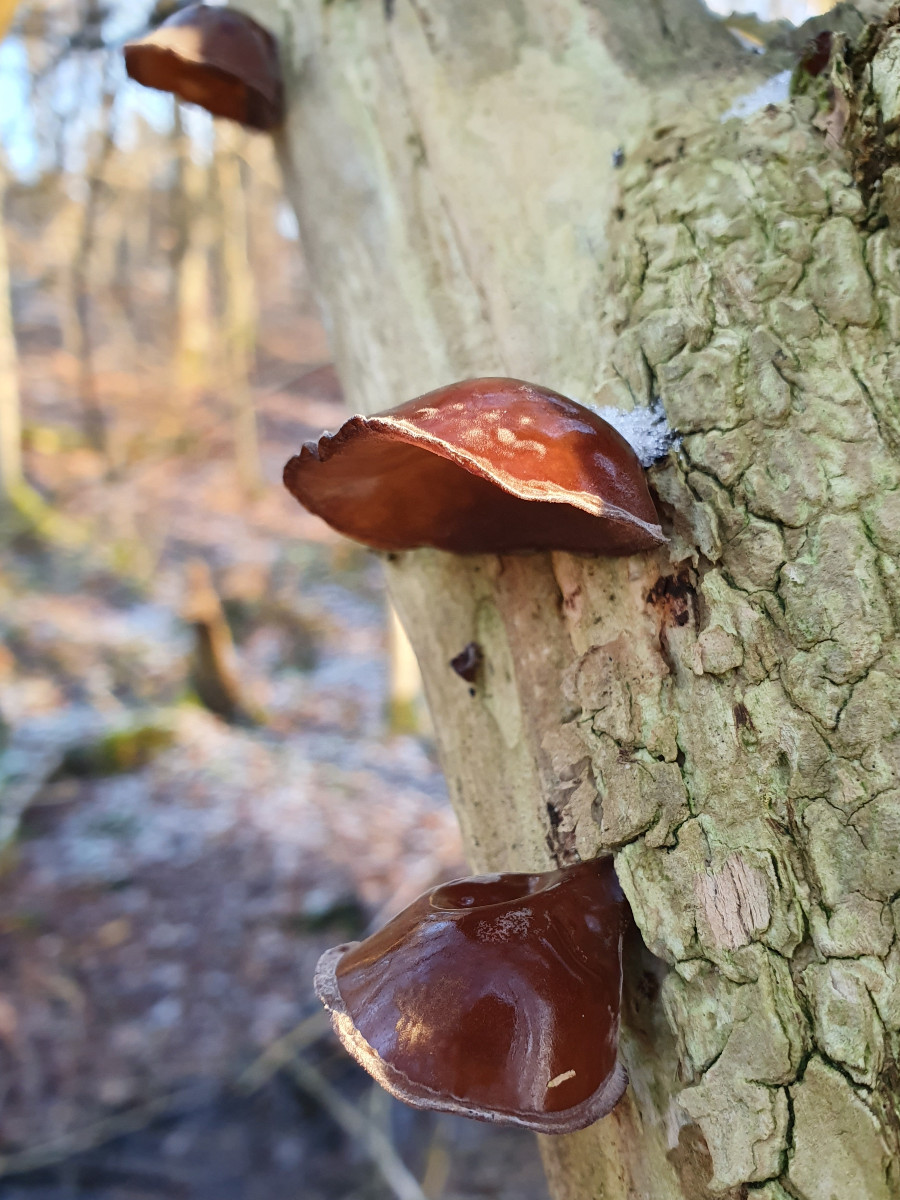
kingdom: Fungi
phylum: Basidiomycota
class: Agaricomycetes
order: Auriculariales
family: Auriculariaceae
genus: Auricularia
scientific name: Auricularia auricula-judae
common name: almindelig judasøre
